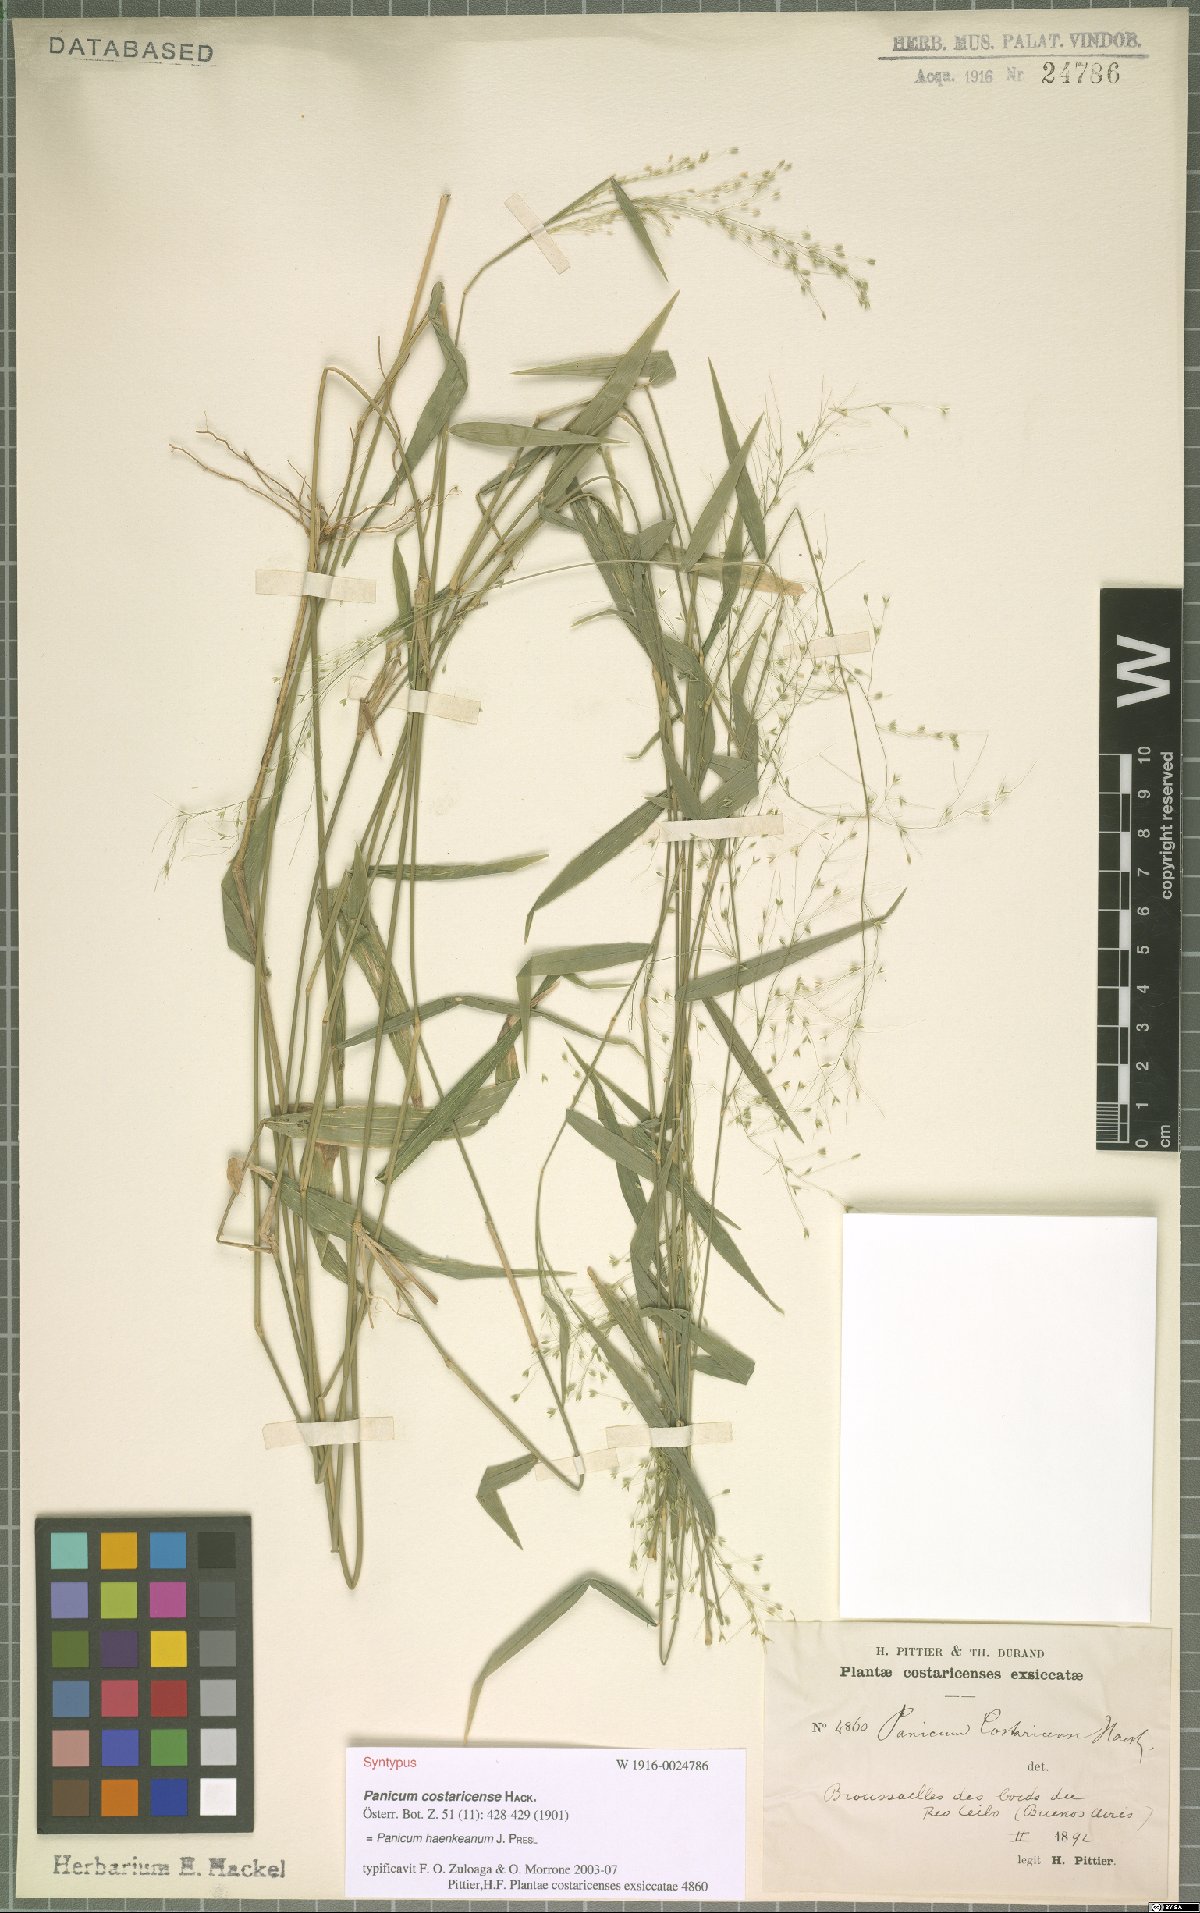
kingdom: Plantae
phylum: Tracheophyta
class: Liliopsida
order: Poales
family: Poaceae
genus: Panicum
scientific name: Panicum haenkeanum
